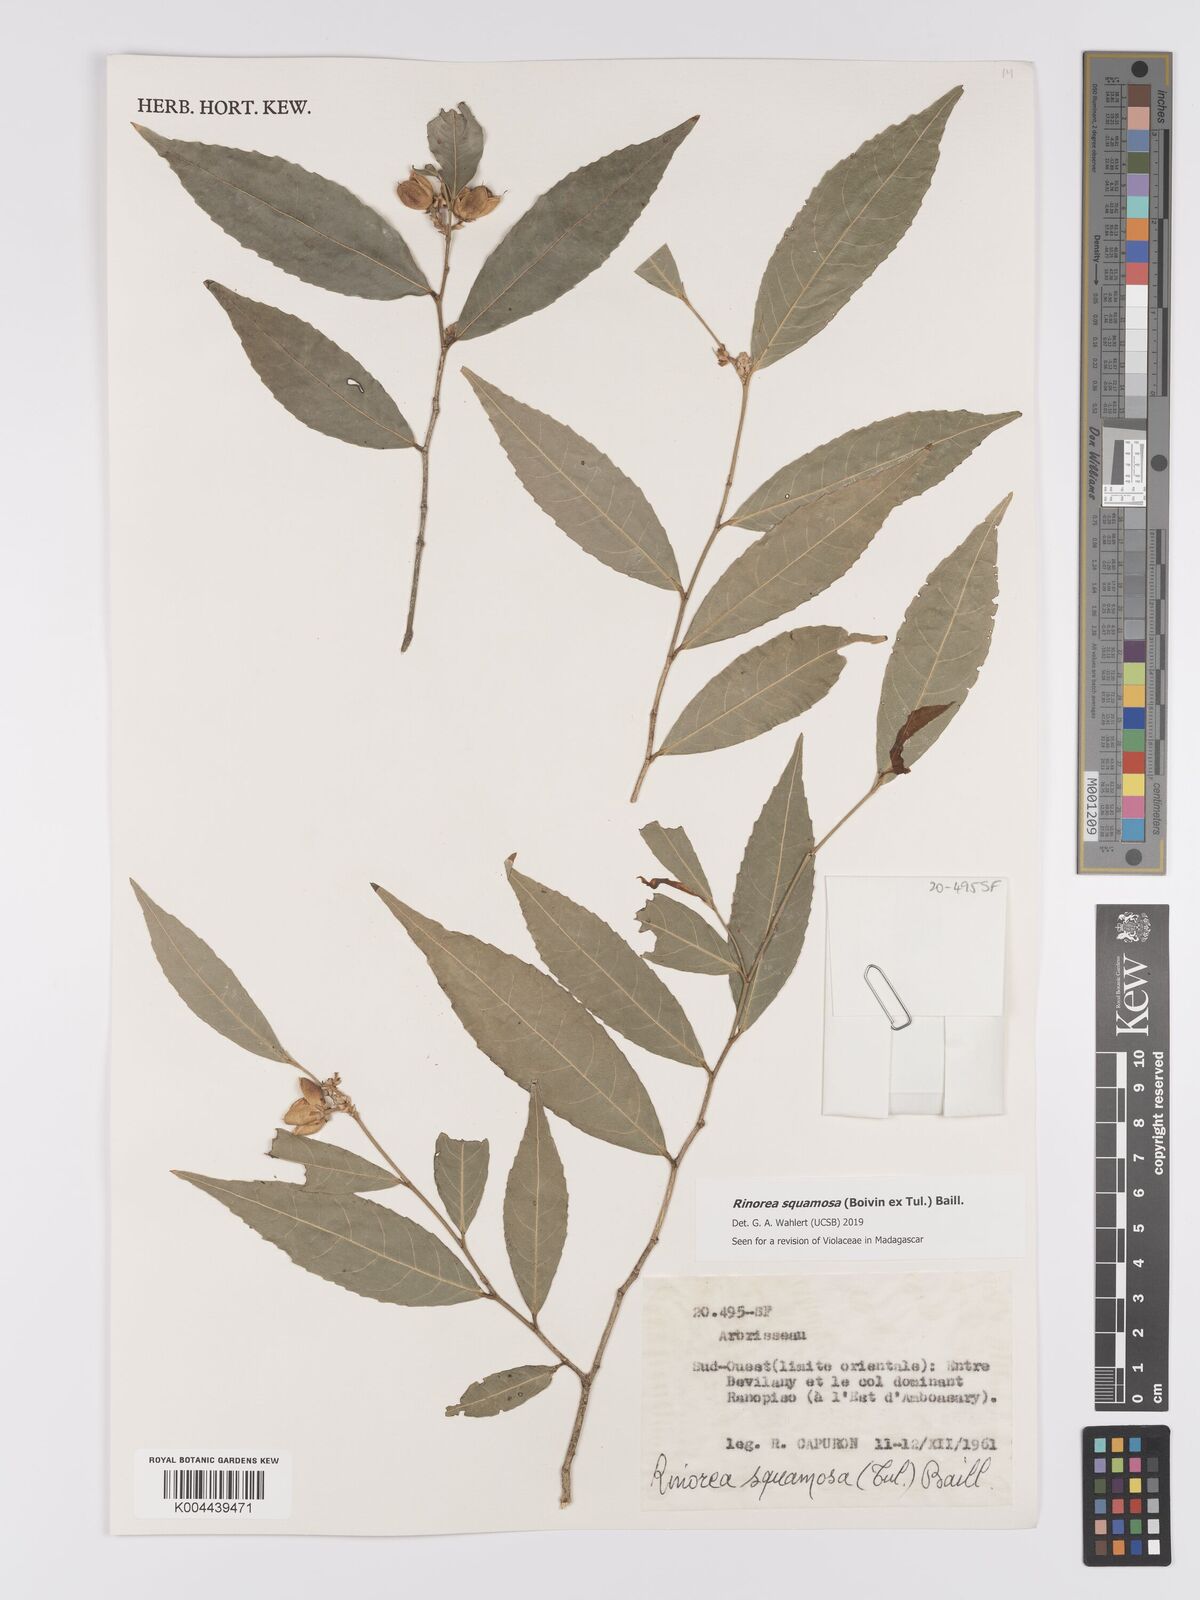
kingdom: Plantae
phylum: Tracheophyta
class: Magnoliopsida
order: Malpighiales
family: Violaceae
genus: Rinorea
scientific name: Rinorea squamosa
